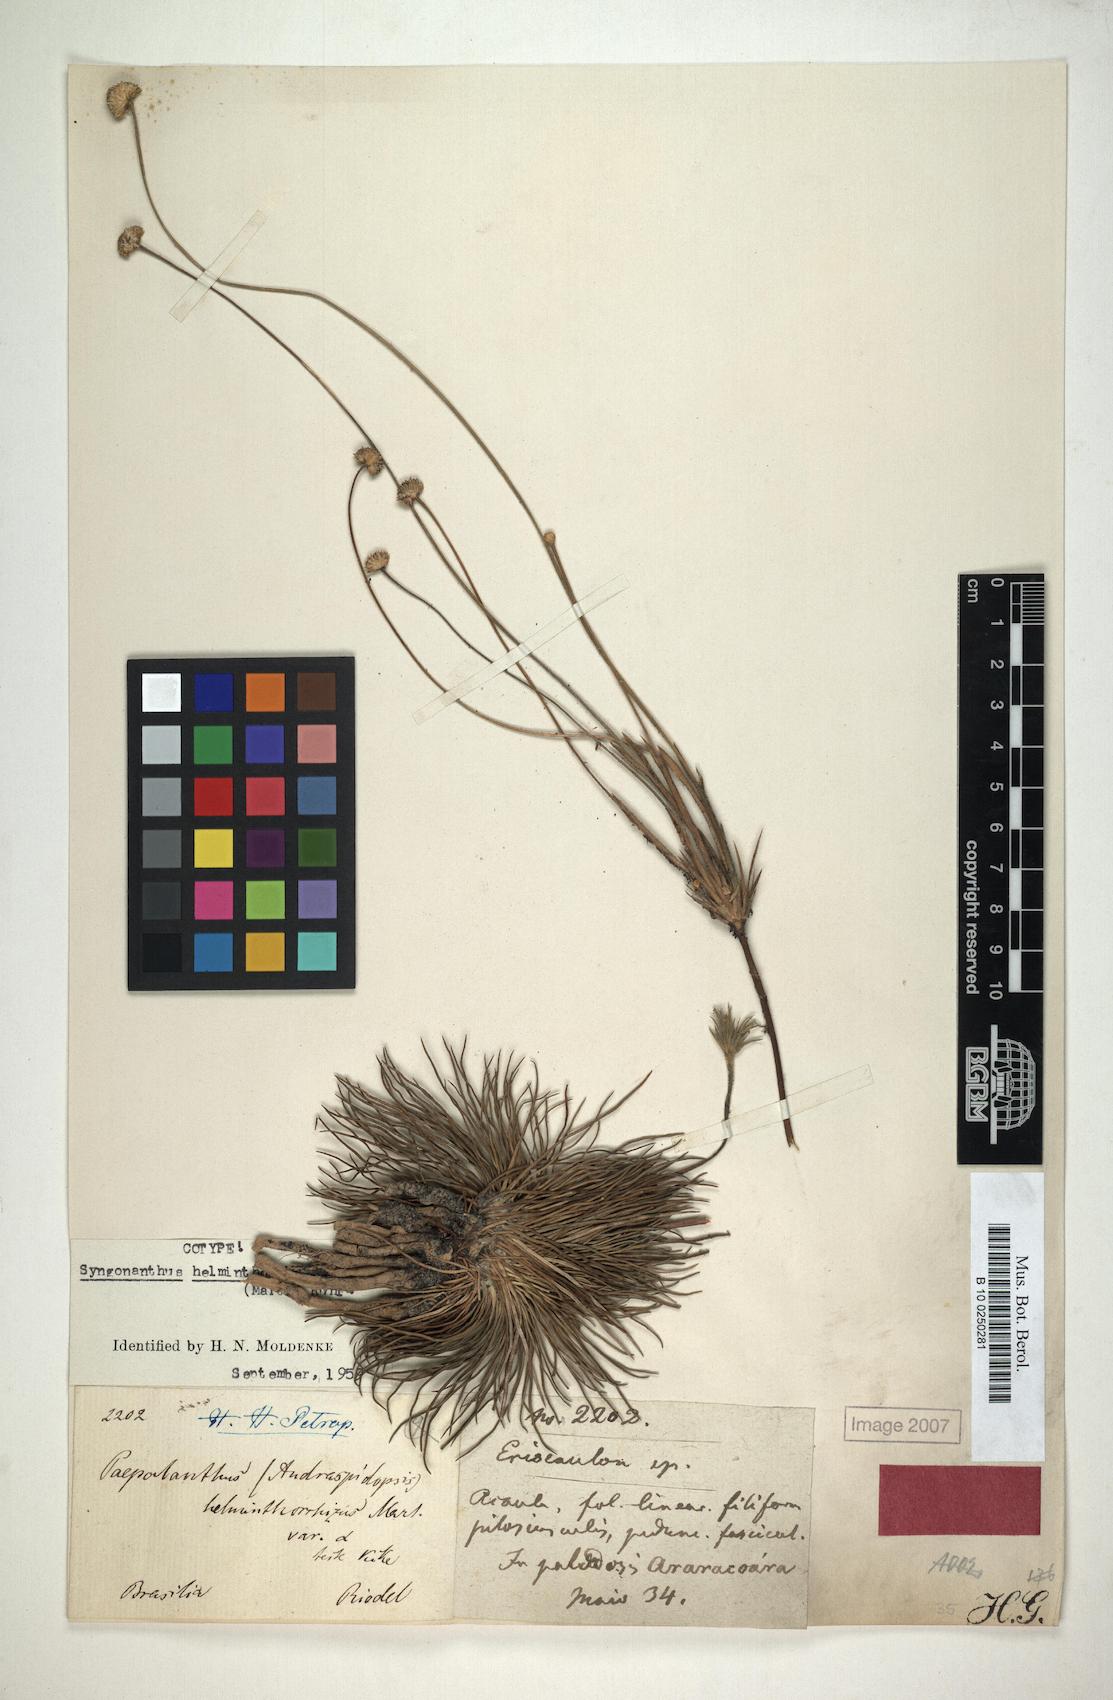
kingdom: Plantae
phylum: Tracheophyta
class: Liliopsida
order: Poales
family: Eriocaulaceae
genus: Syngonanthus
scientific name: Syngonanthus helminthorrhizus
